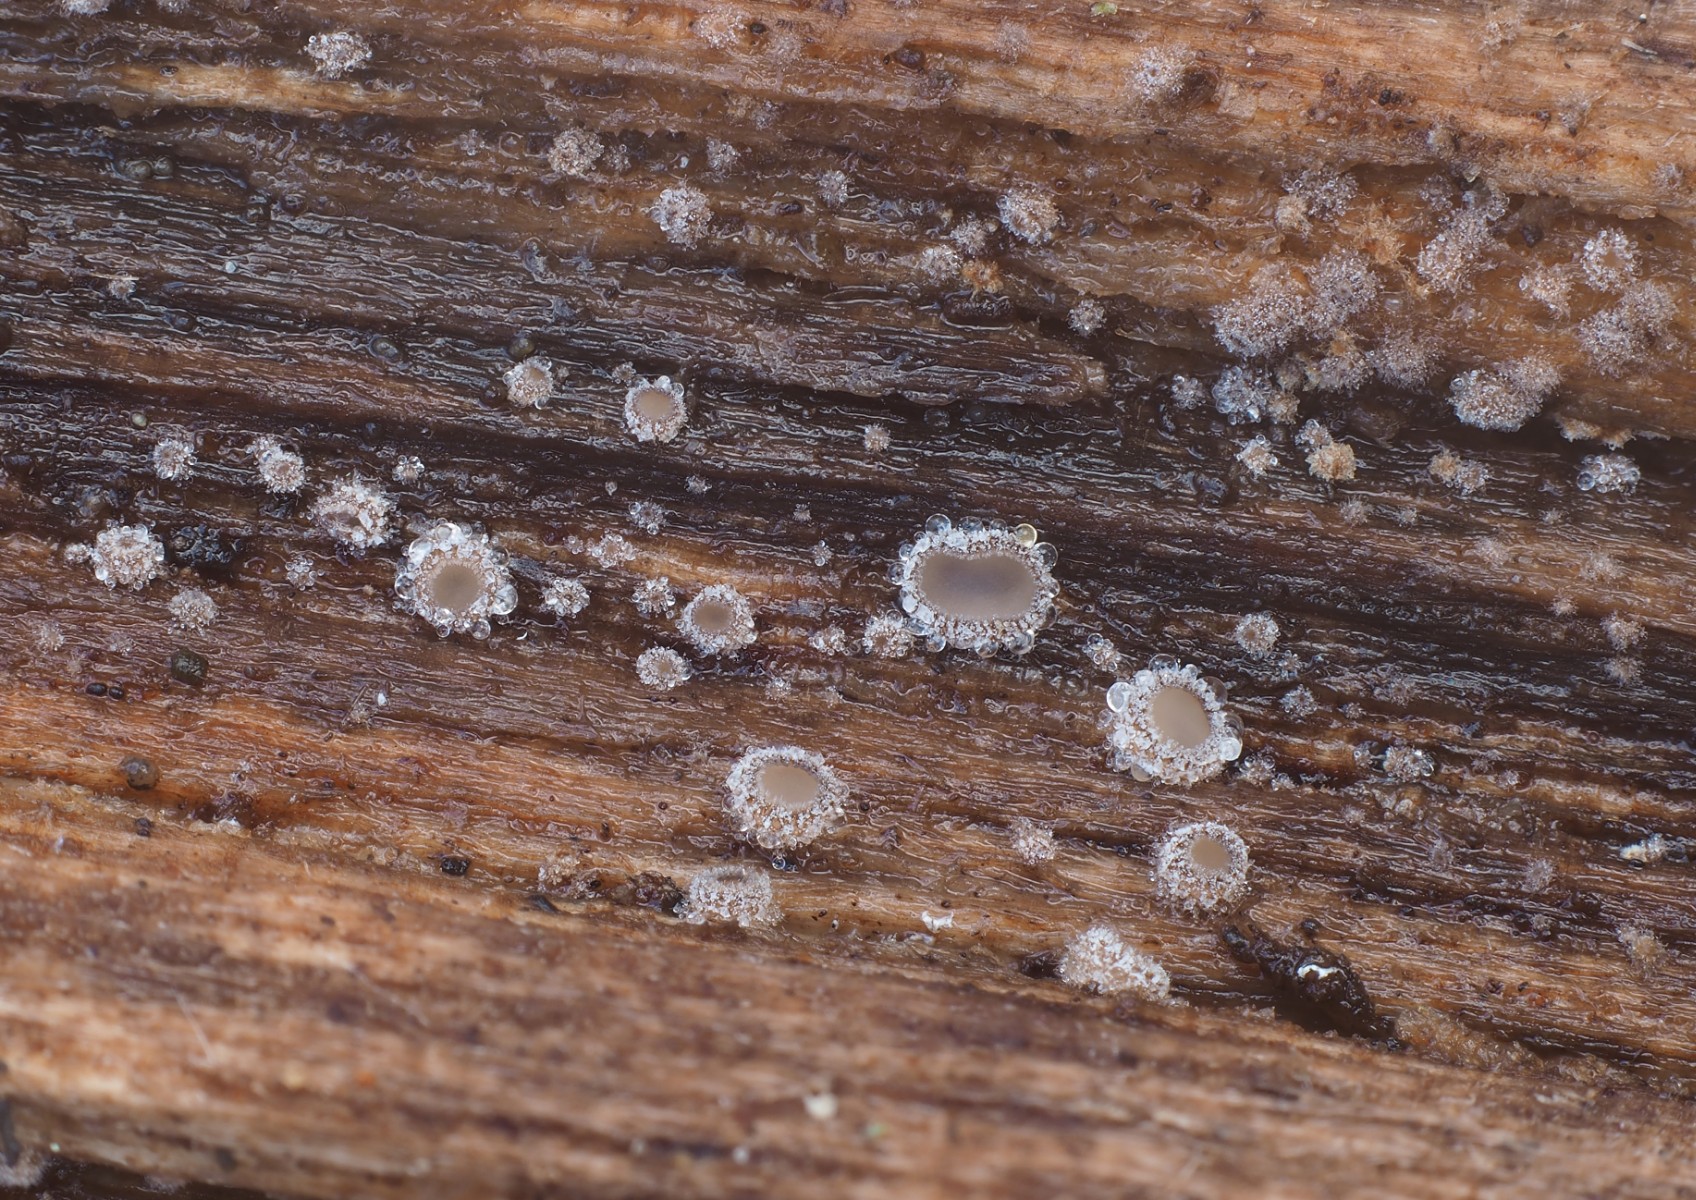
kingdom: Fungi
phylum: Ascomycota
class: Leotiomycetes
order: Helotiales
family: Solenopeziaceae
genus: Lasiobelonium
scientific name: Lasiobelonium variegatum
